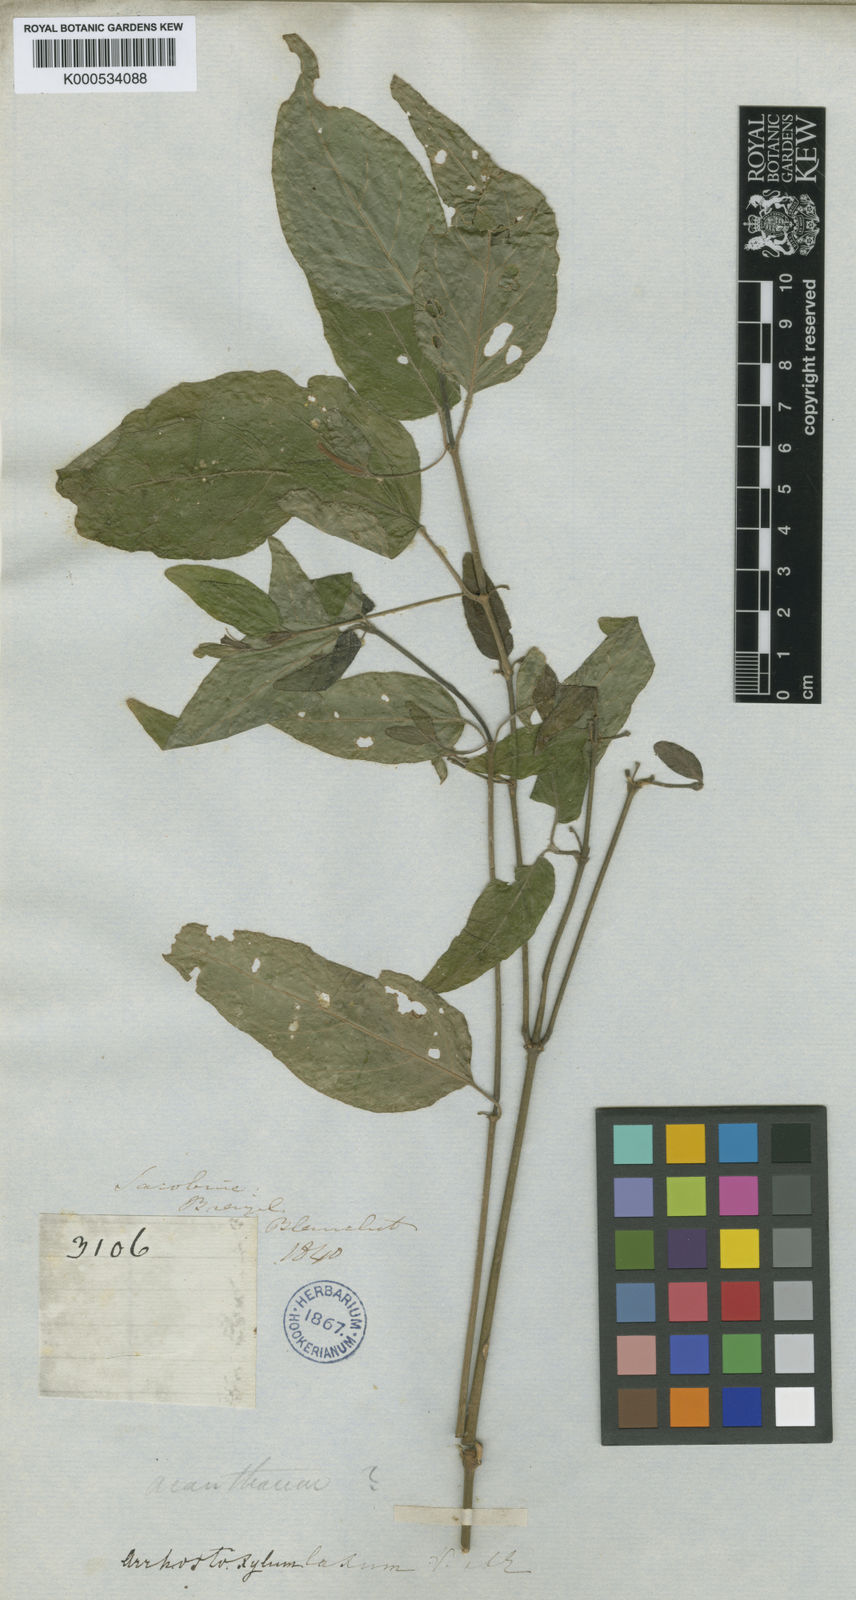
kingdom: Plantae
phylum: Tracheophyta
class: Magnoliopsida
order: Lamiales
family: Acanthaceae
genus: Ruellia
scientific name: Ruellia laxa
